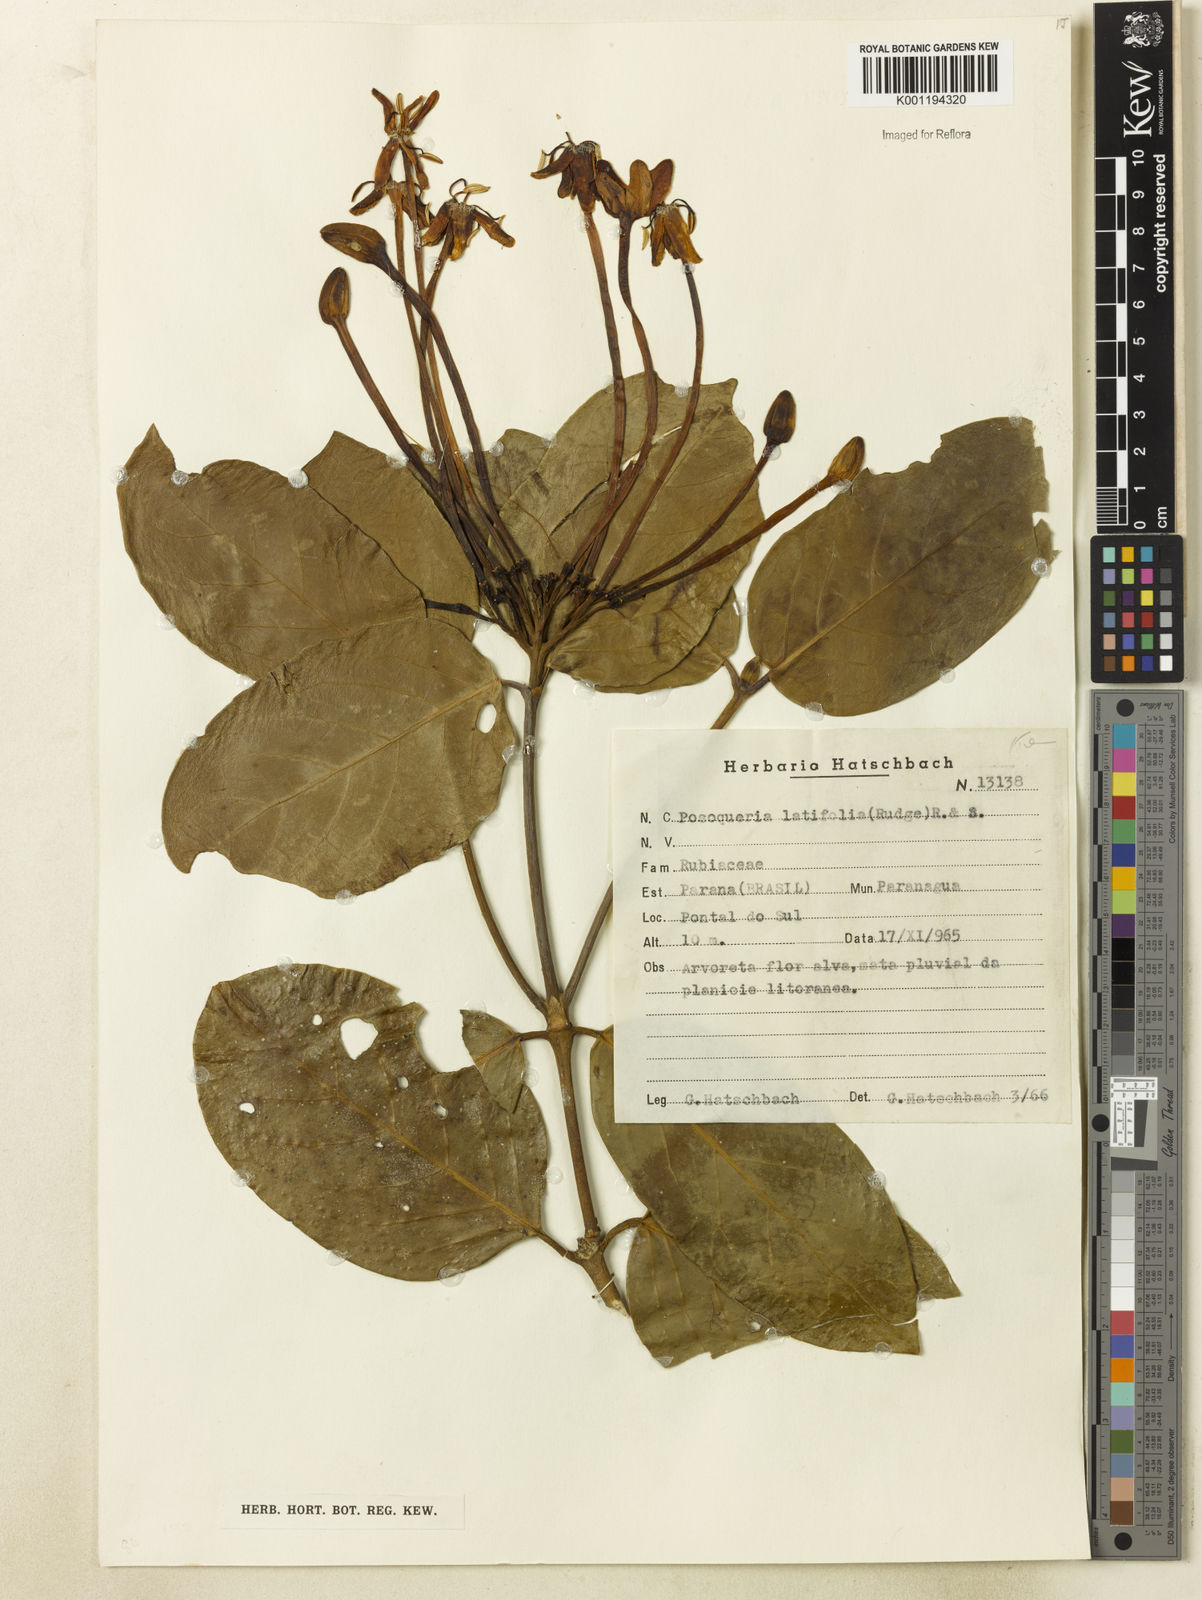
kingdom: Plantae
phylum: Tracheophyta
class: Magnoliopsida
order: Gentianales
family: Rubiaceae
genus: Posoqueria
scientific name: Posoqueria latifolia
